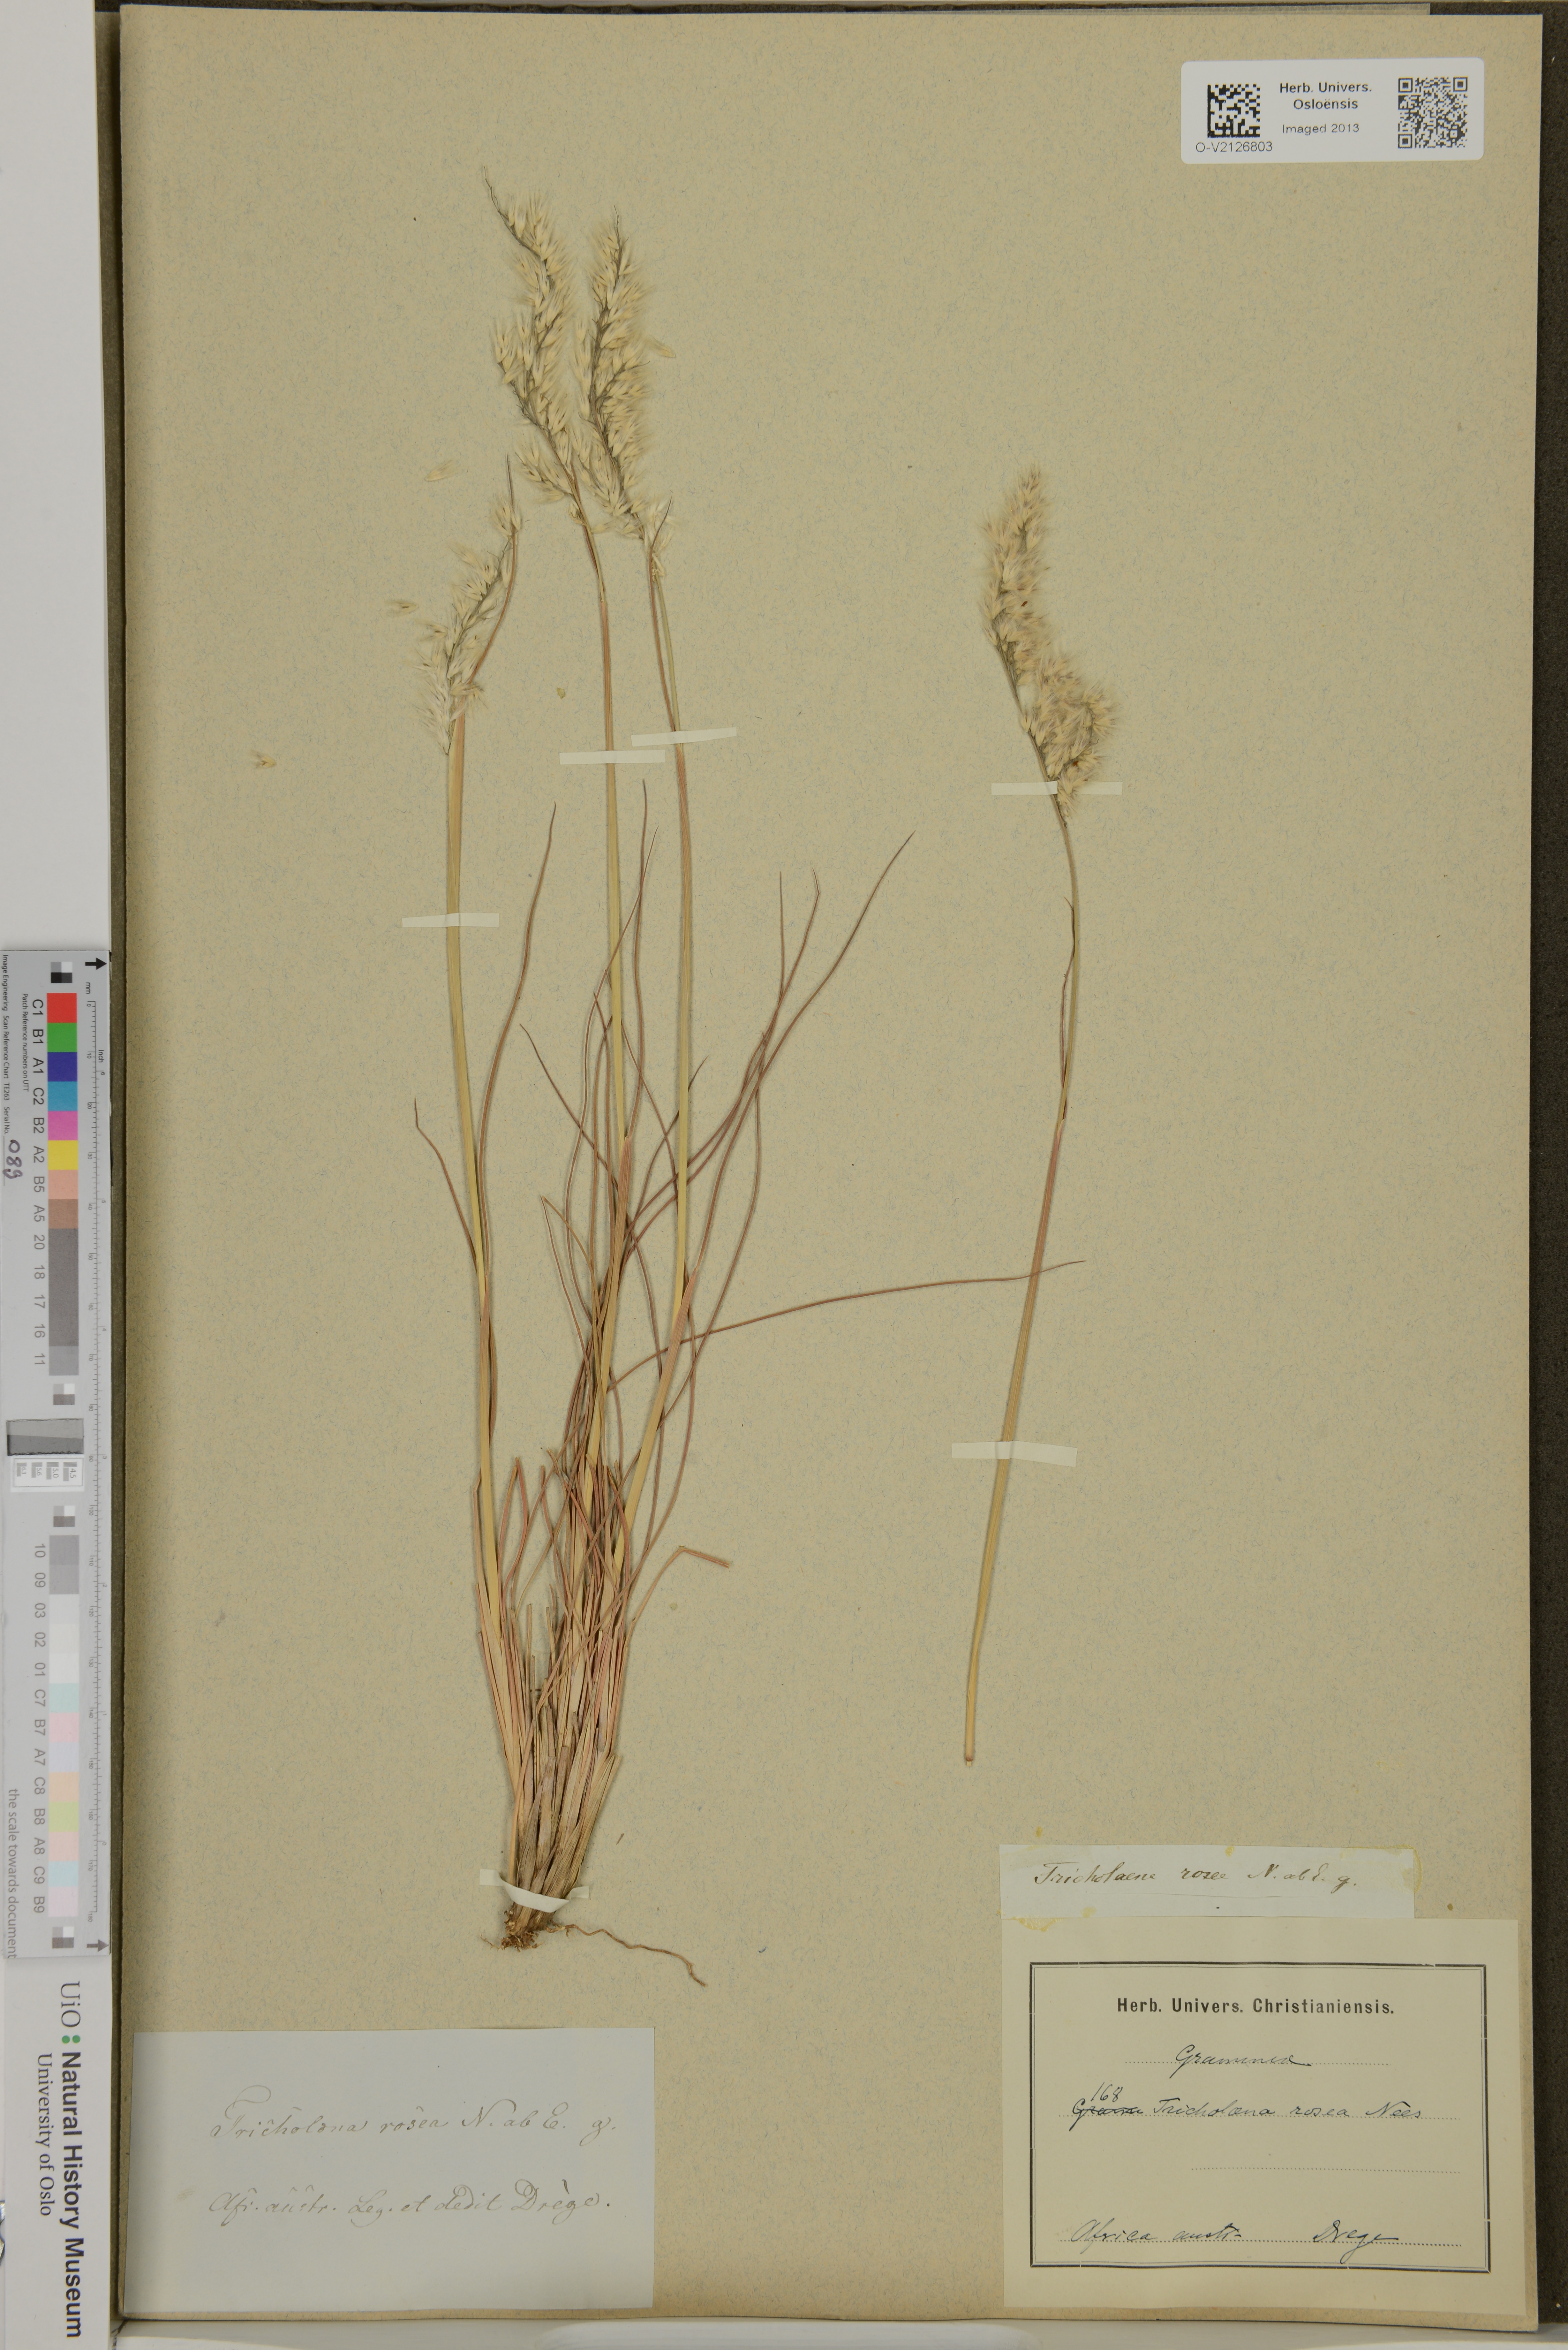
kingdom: Plantae
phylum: Tracheophyta
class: Liliopsida
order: Poales
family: Poaceae
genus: Tricholaena
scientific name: Tricholaena rosea
